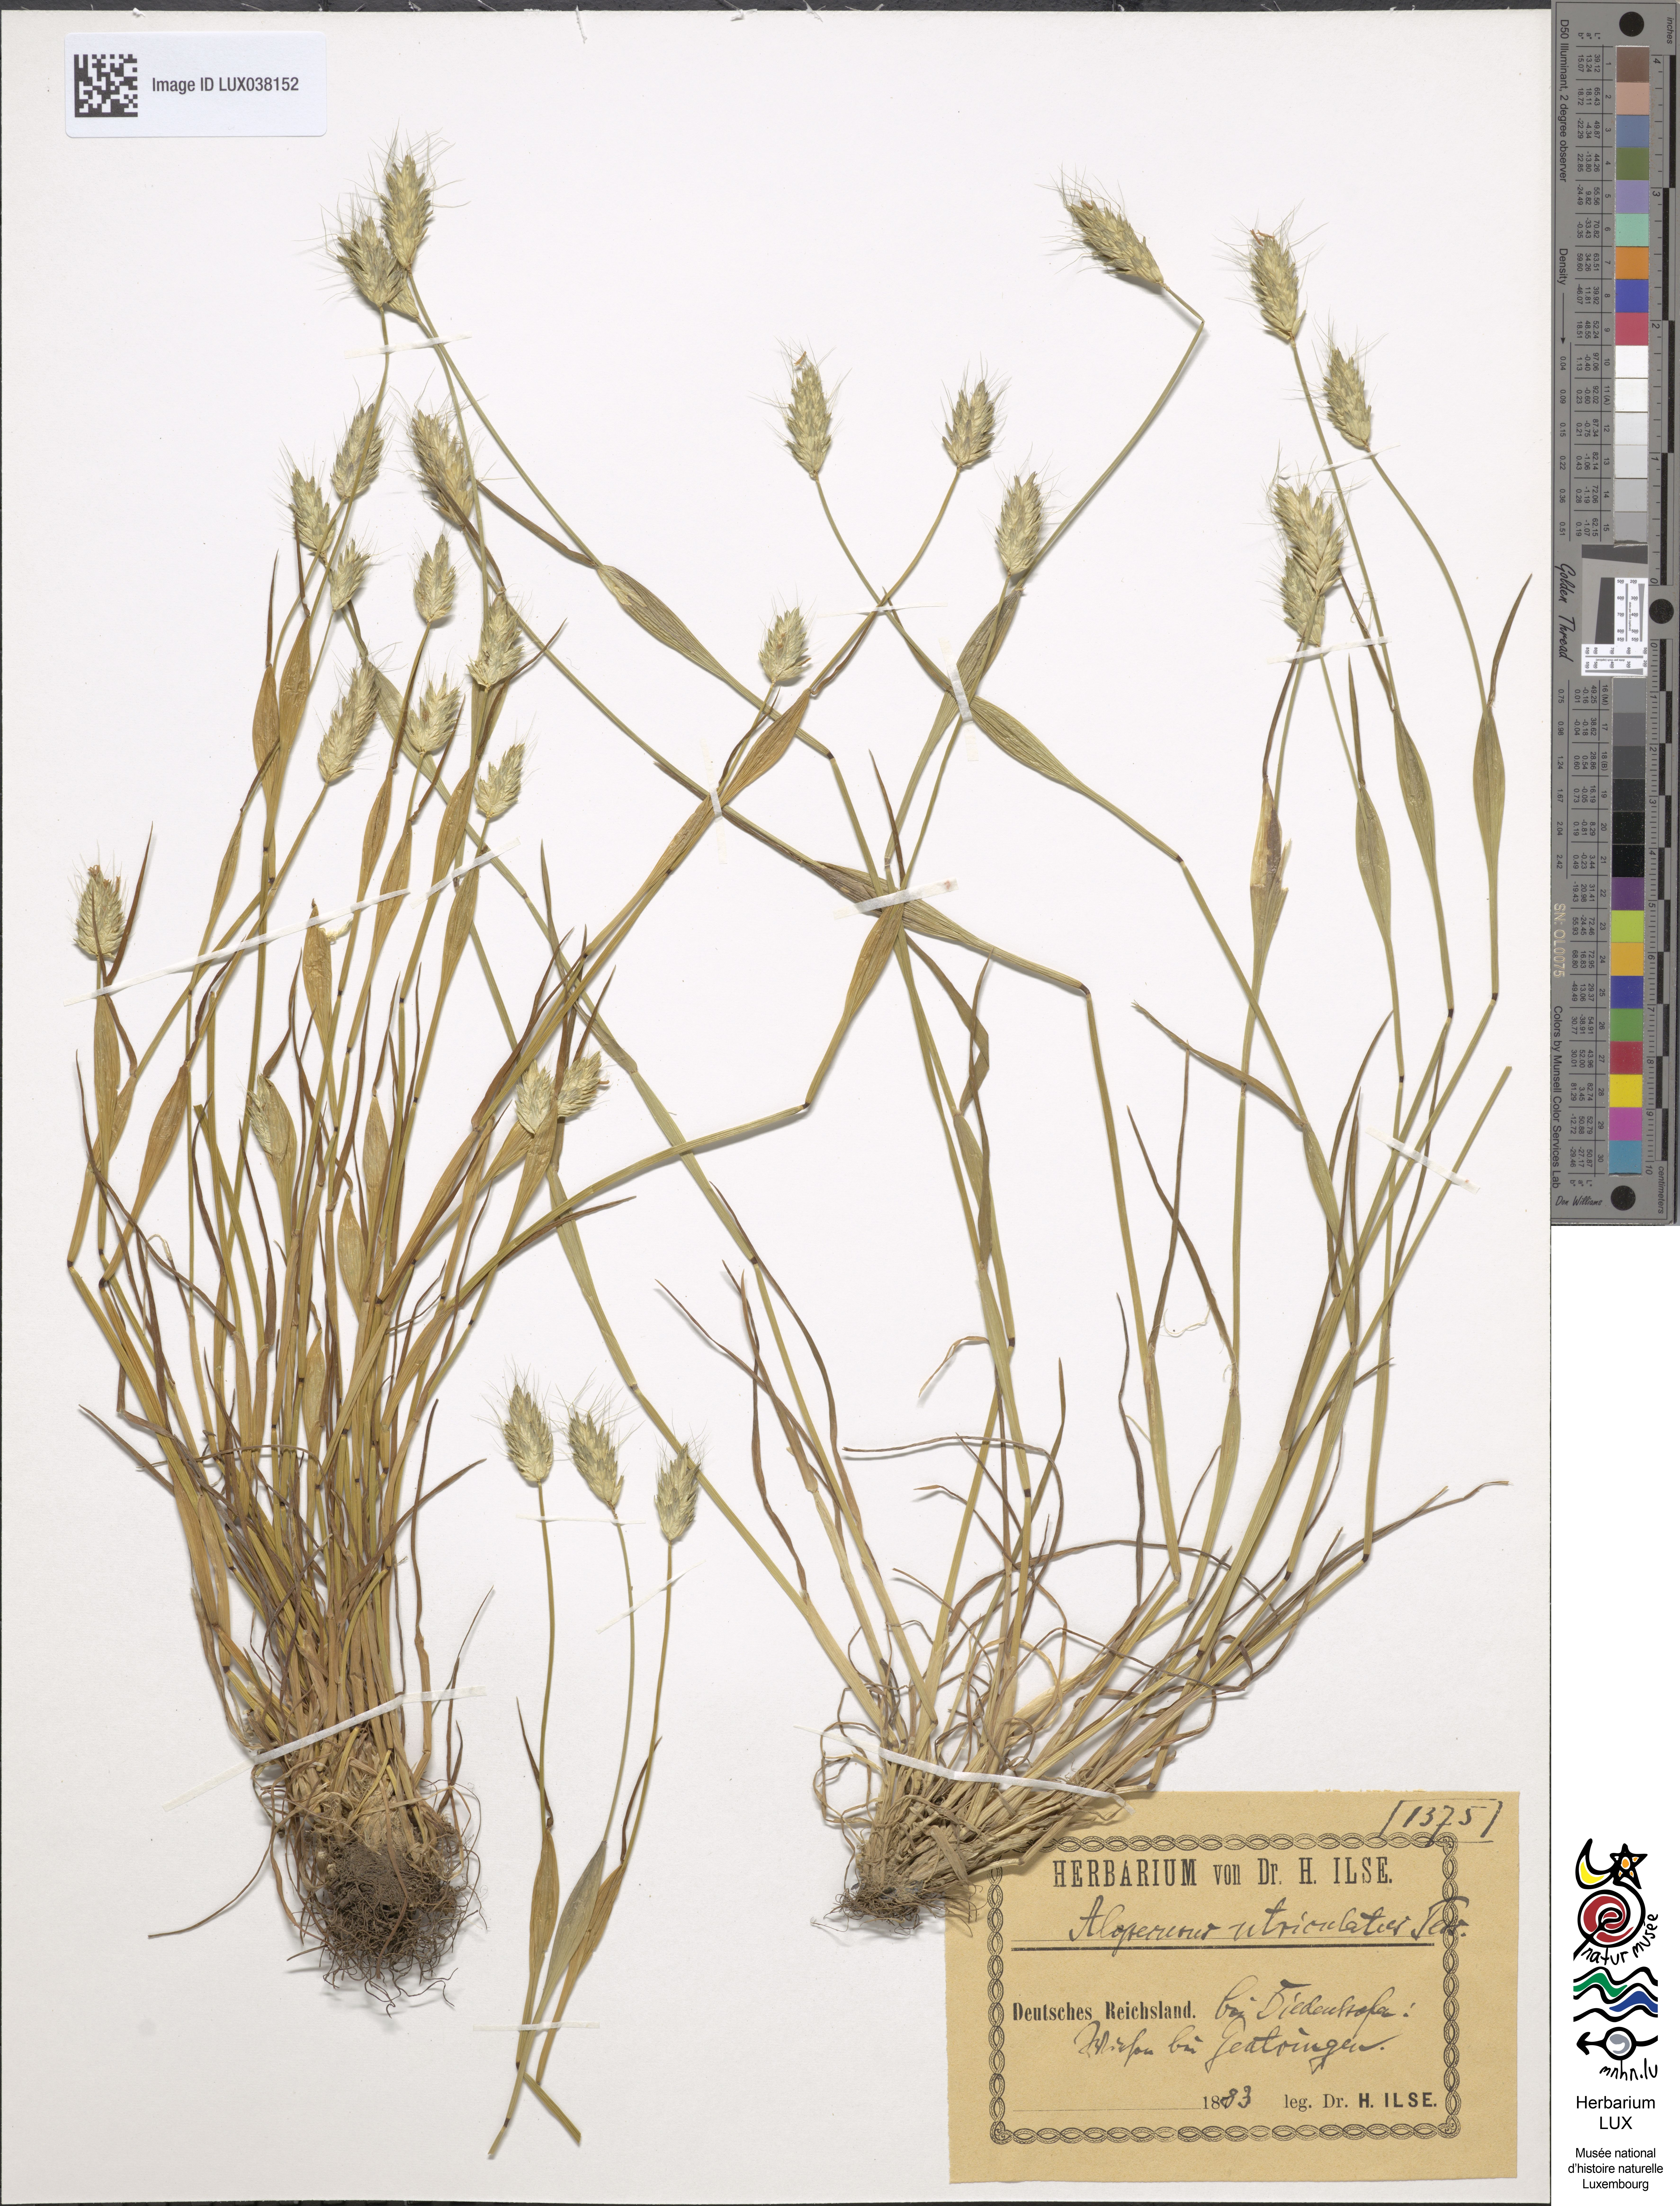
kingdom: Plantae
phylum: Tracheophyta
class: Liliopsida
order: Poales
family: Poaceae
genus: Alopecurus
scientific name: Alopecurus rendlei
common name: Rendle's meadow foxtail
